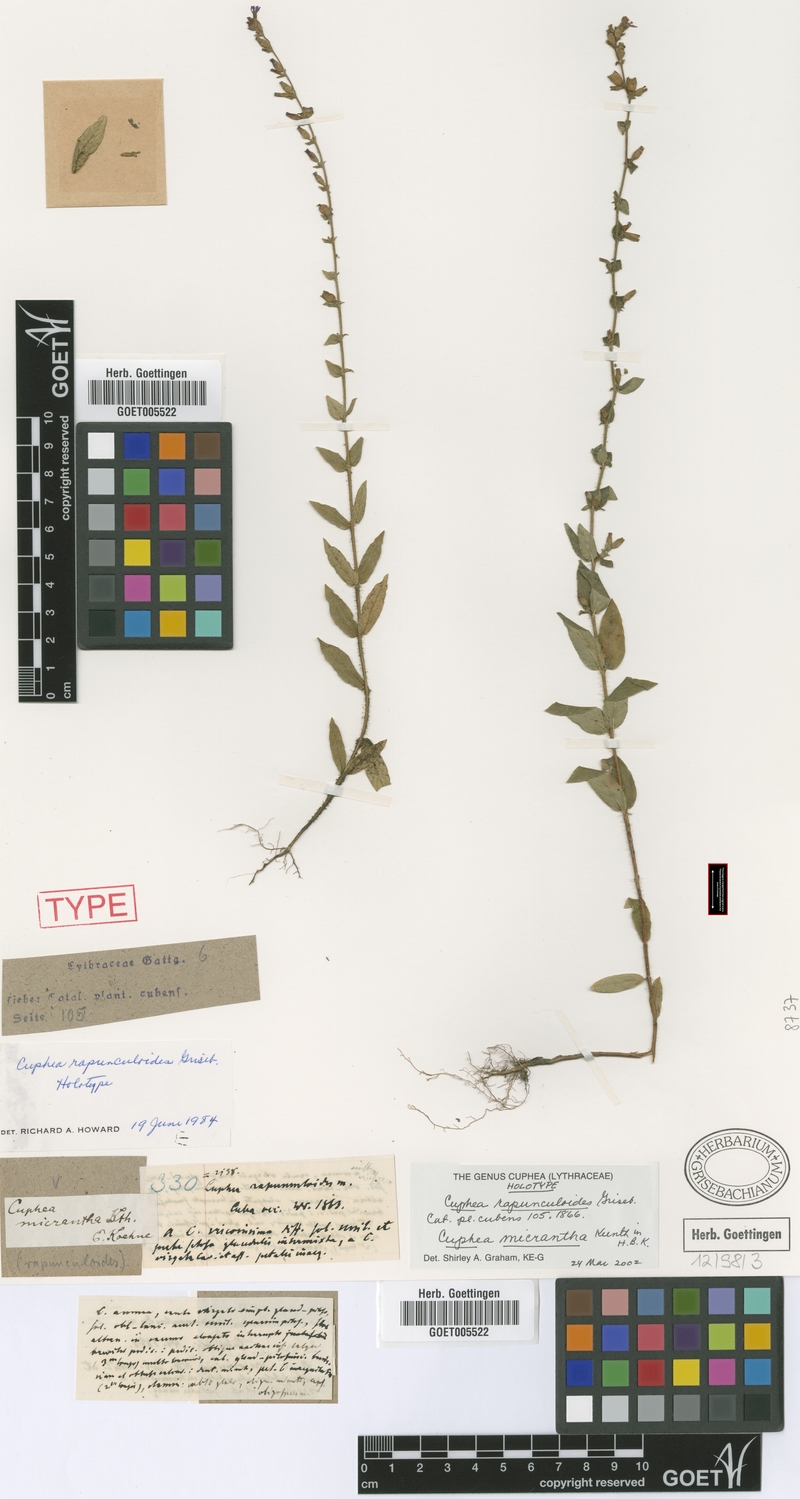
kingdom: Plantae
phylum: Tracheophyta
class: Magnoliopsida
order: Myrtales
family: Lythraceae
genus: Cuphea
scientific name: Cuphea micrantha
